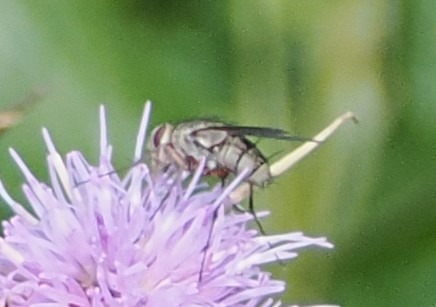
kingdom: Animalia
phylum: Arthropoda
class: Insecta
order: Diptera
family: Tachinidae
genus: Prosena
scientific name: Prosena siberita
